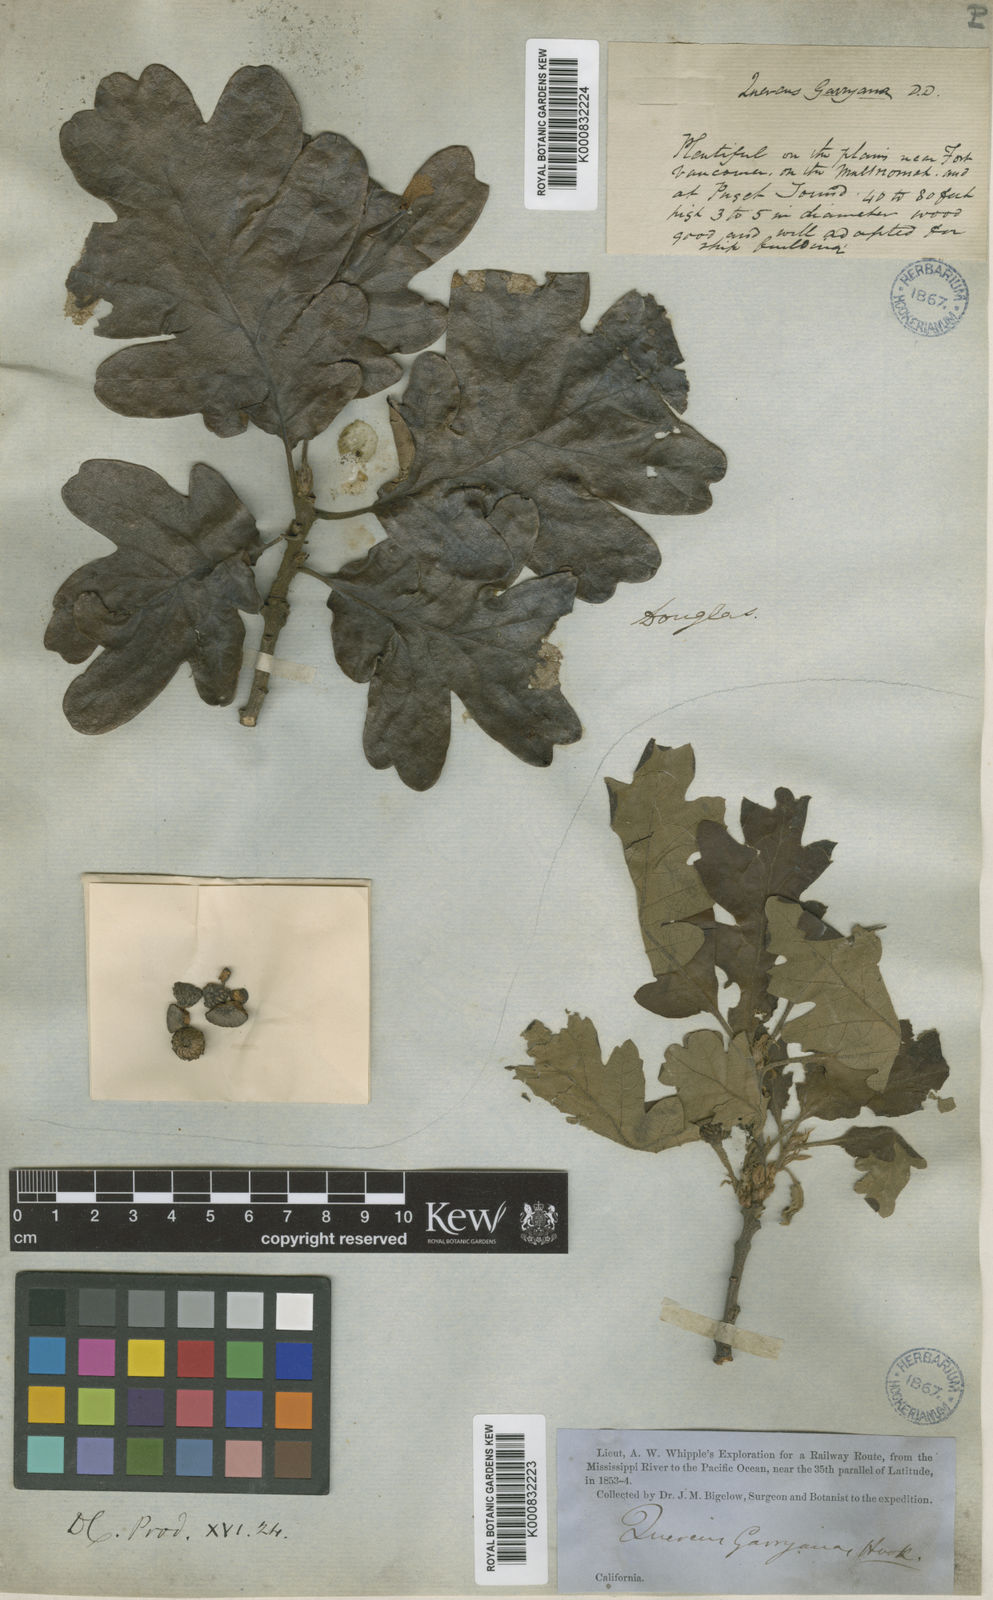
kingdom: Plantae
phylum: Tracheophyta
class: Magnoliopsida
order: Fagales
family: Fagaceae
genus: Quercus
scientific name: Quercus garryana
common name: Garry oak
